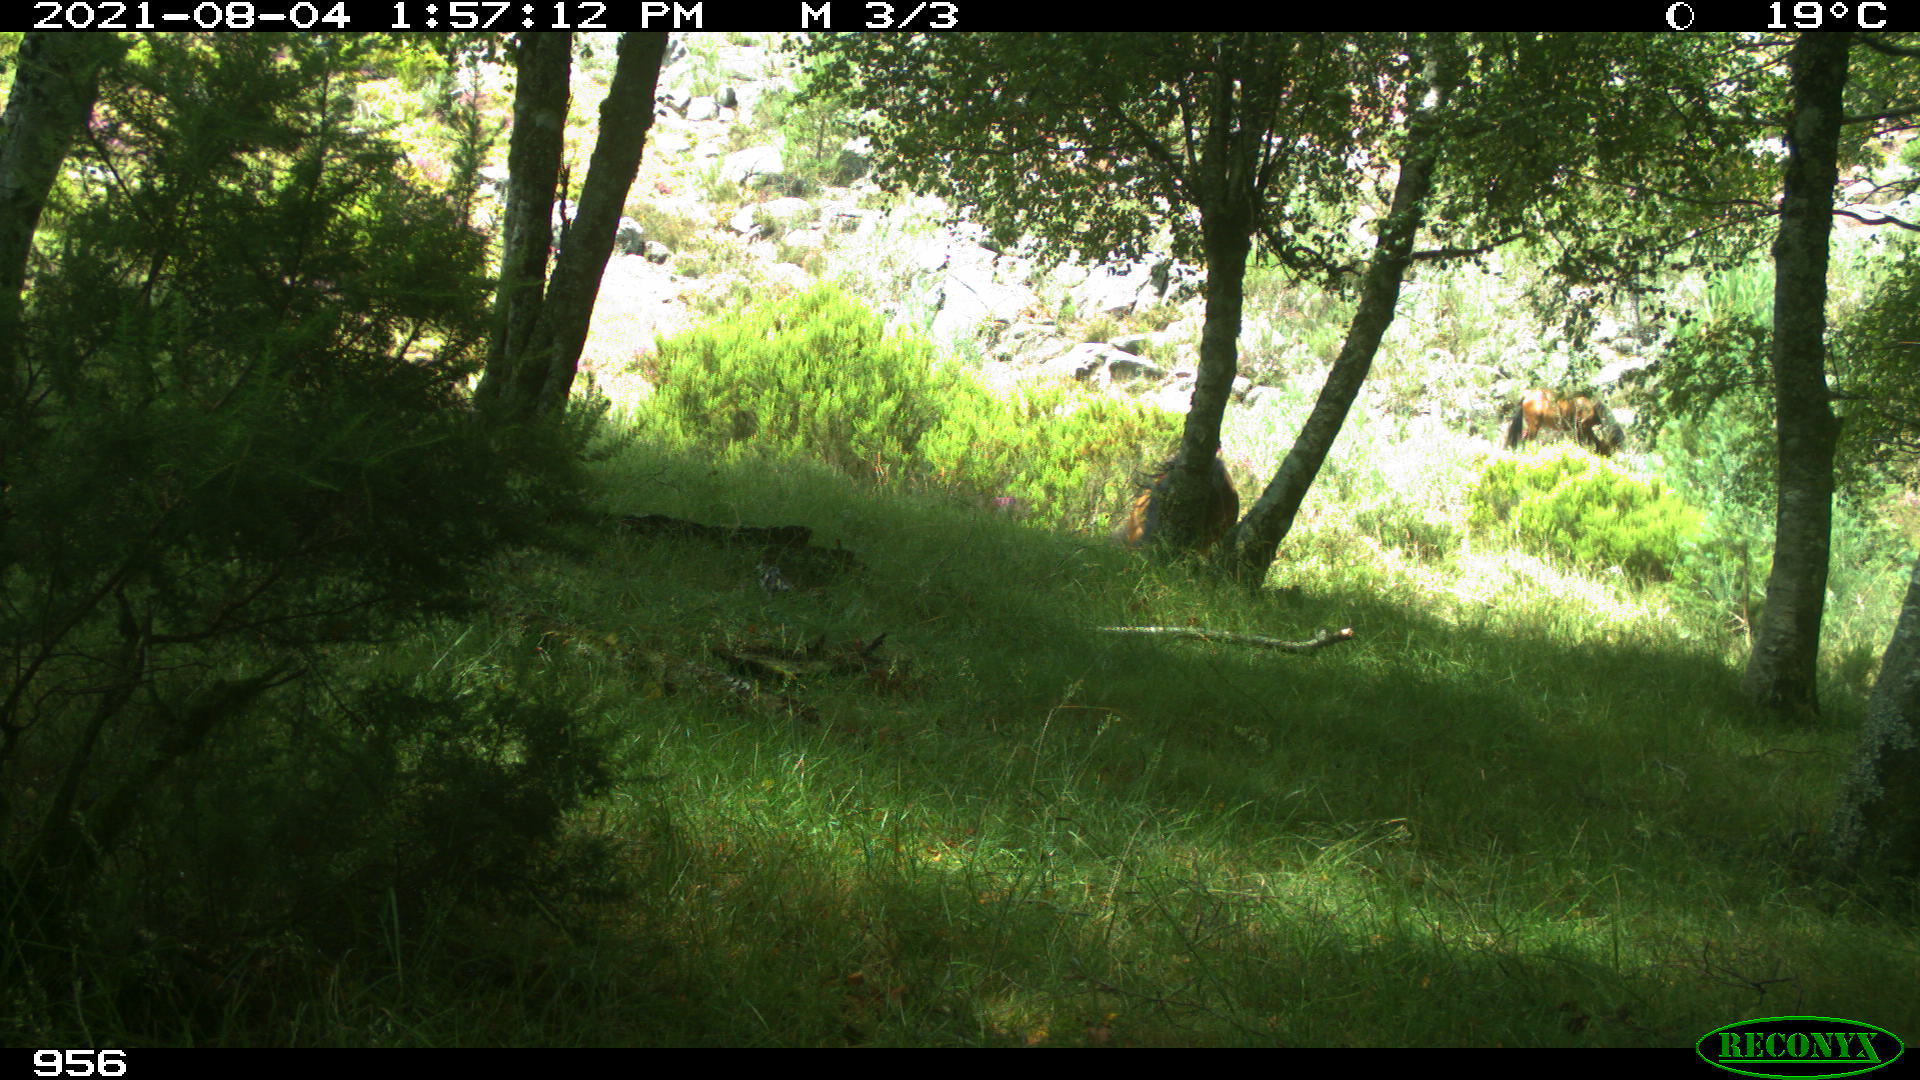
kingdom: Animalia
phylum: Chordata
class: Mammalia
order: Perissodactyla
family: Equidae
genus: Equus
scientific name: Equus caballus
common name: Horse
